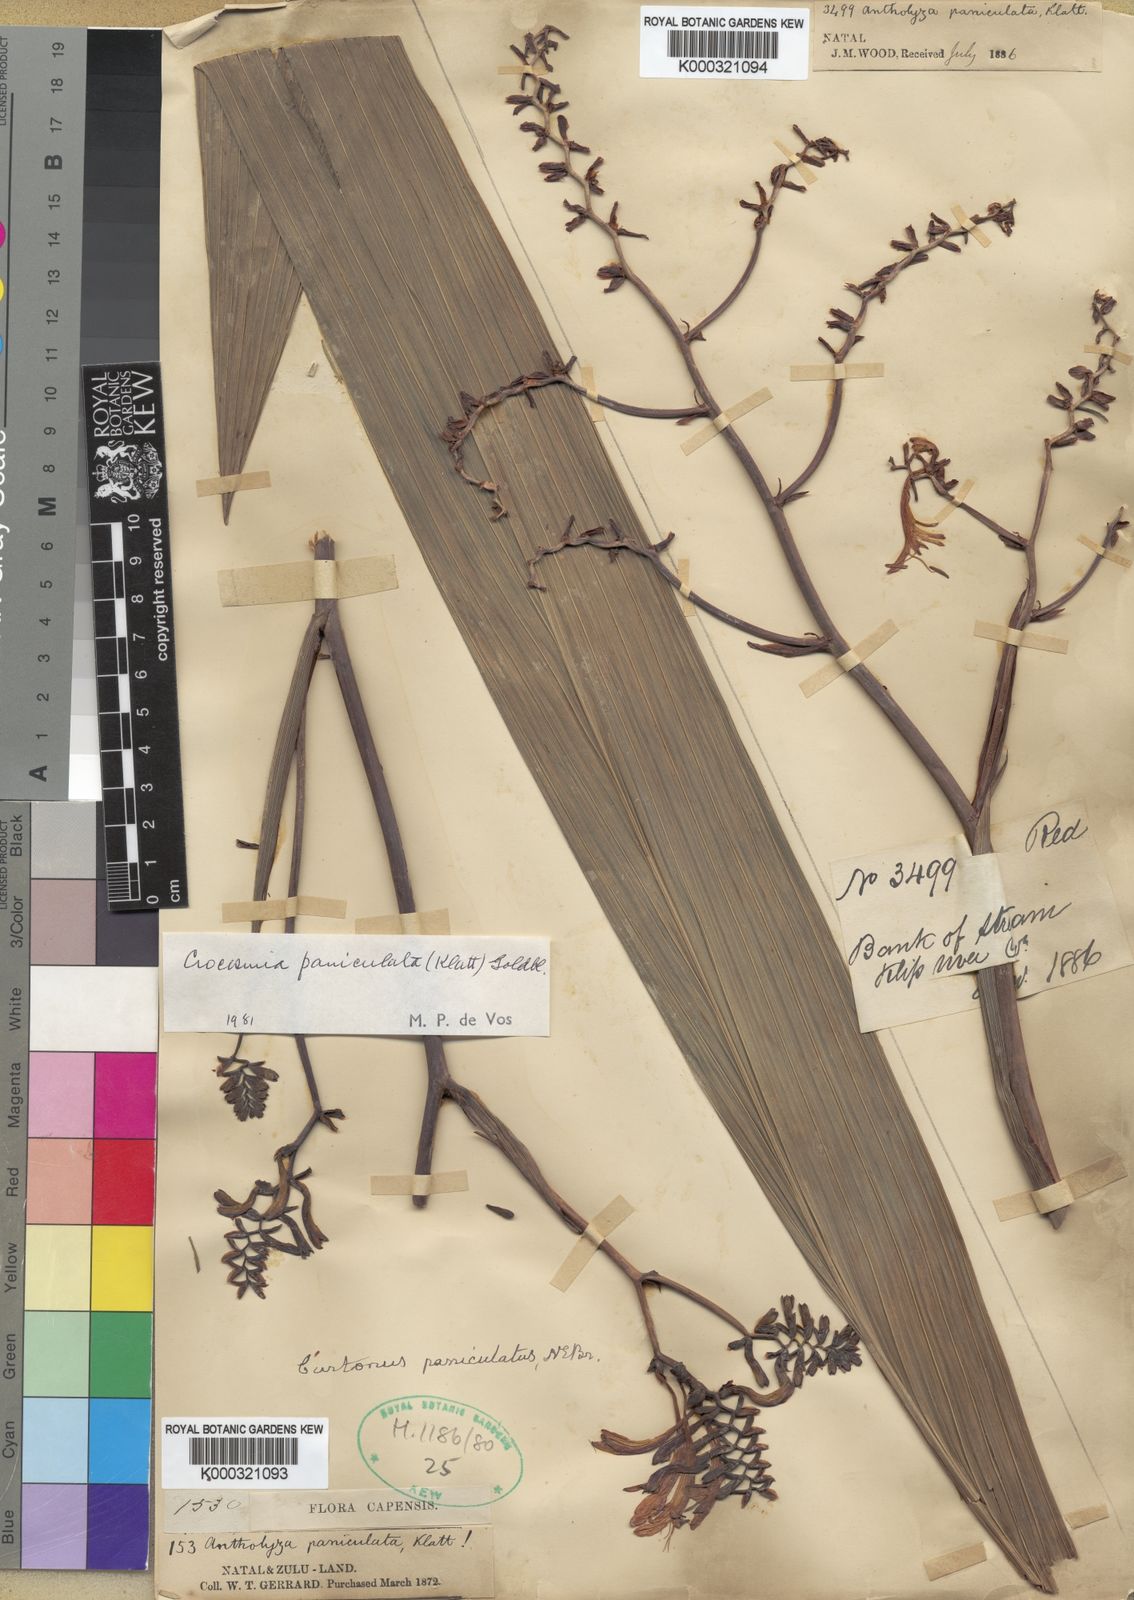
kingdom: Plantae
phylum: Tracheophyta
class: Liliopsida
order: Asparagales
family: Iridaceae
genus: Crocosmia
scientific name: Crocosmia paniculata
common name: Aunt eliza
